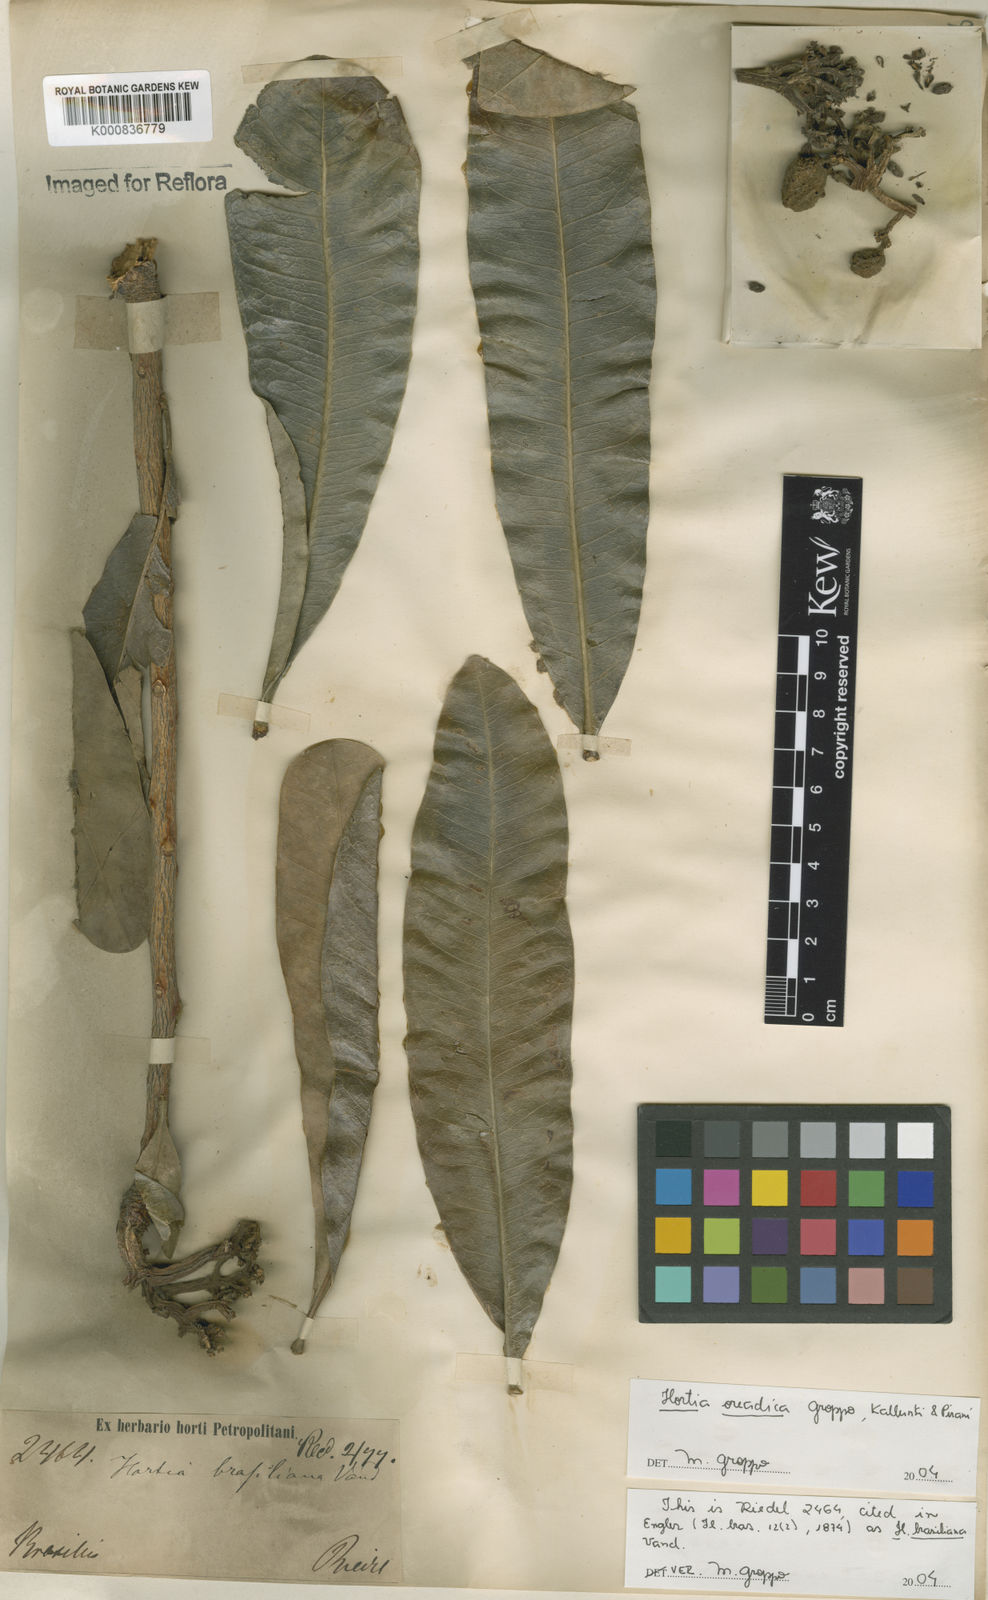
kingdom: Plantae
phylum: Tracheophyta
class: Magnoliopsida
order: Sapindales
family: Rutaceae
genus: Hortia
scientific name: Hortia brasiliana
